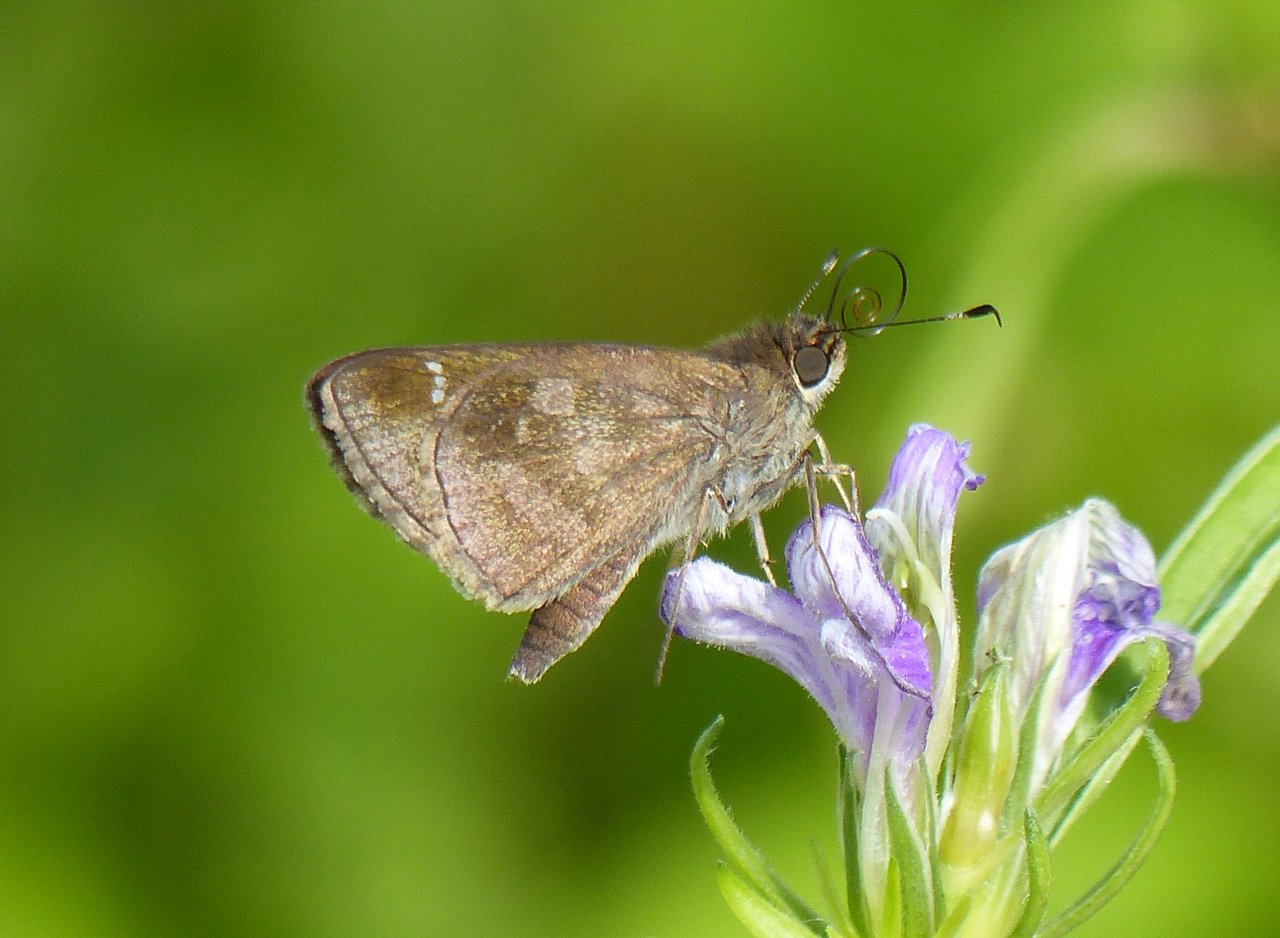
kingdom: Animalia
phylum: Arthropoda
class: Insecta
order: Lepidoptera
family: Hesperiidae
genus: Cymaenes
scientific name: Cymaenes odilia
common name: Fawn-spotted Skipper
